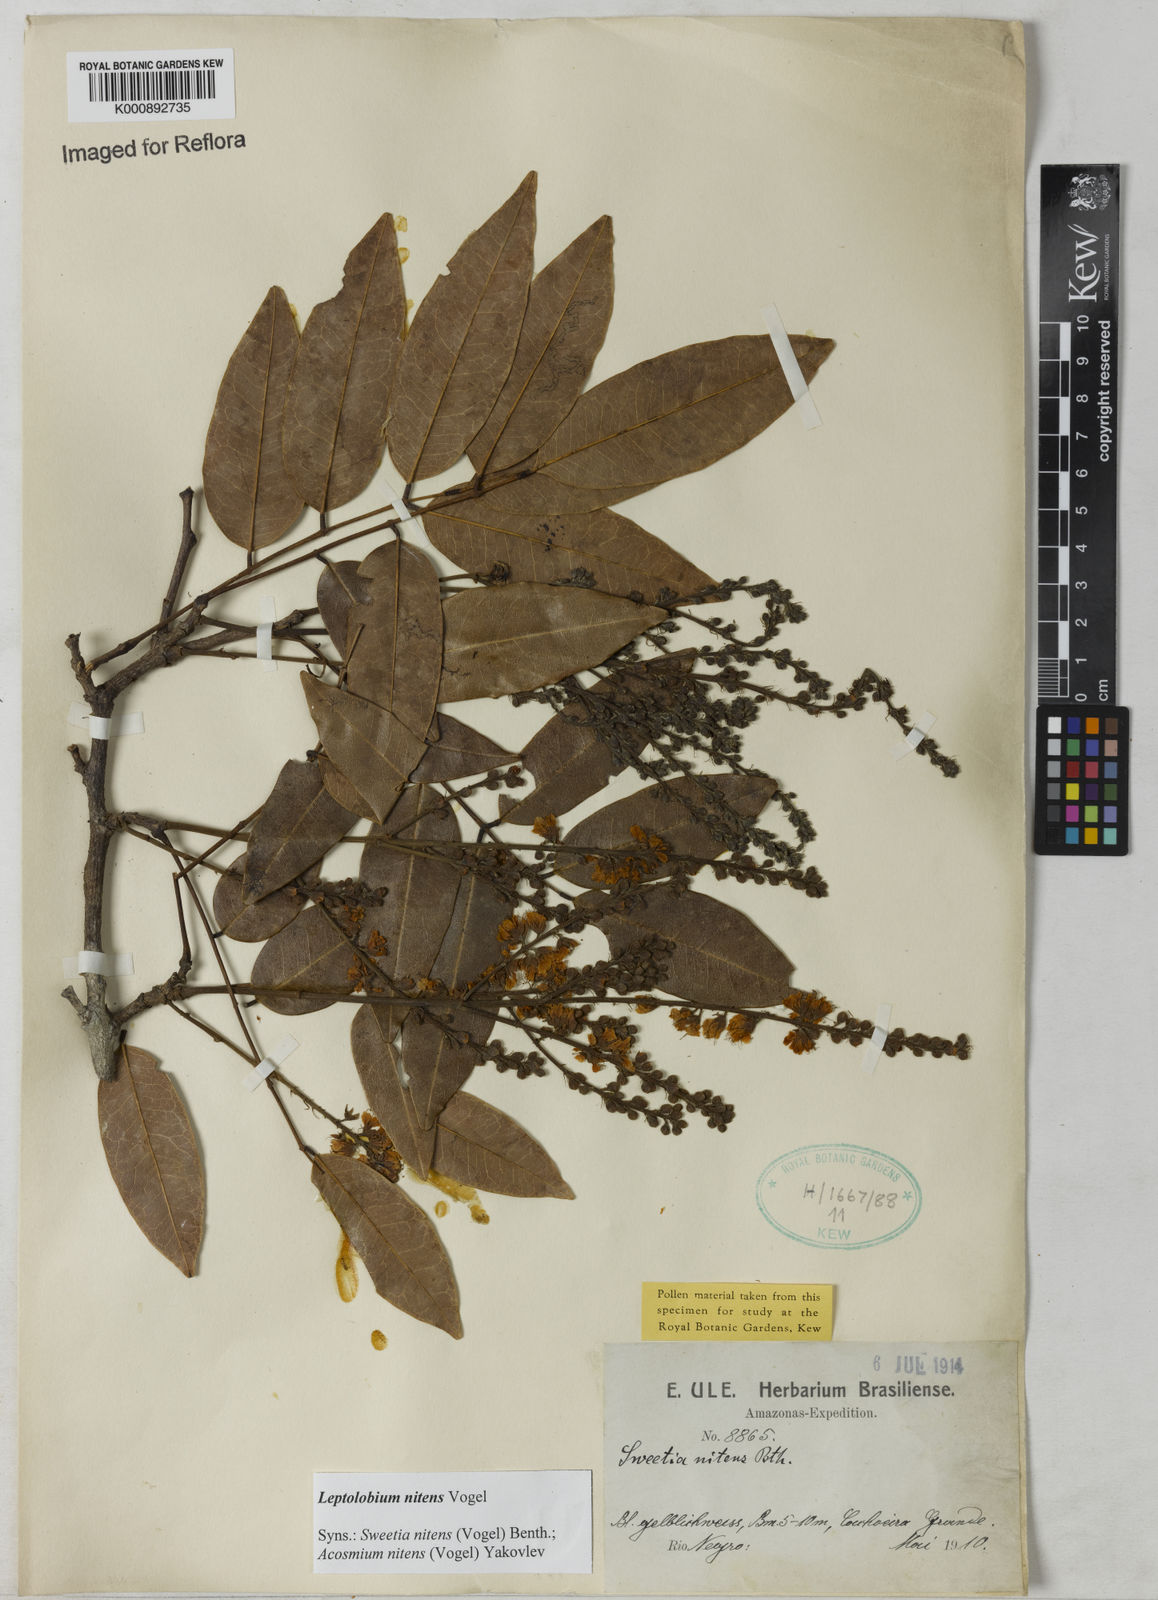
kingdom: Plantae
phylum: Tracheophyta
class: Magnoliopsida
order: Fabales
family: Fabaceae
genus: Leptolobium
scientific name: Leptolobium nitens
